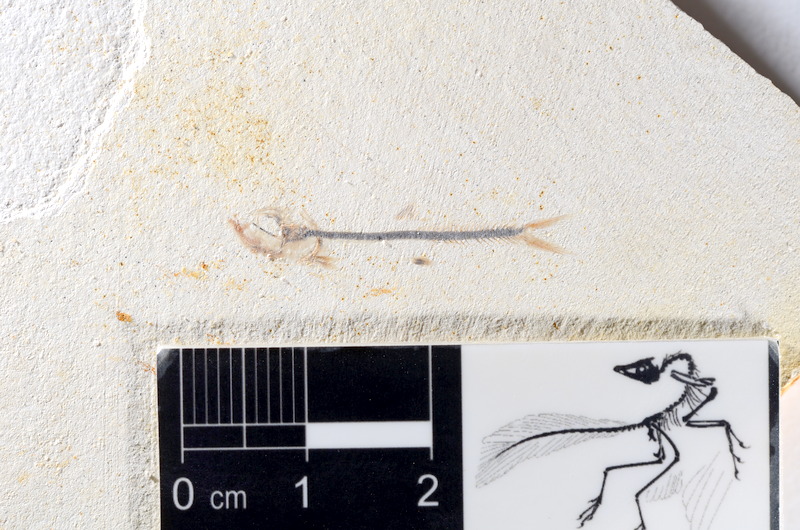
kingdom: Animalia
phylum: Chordata
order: Salmoniformes
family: Orthogonikleithridae
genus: Orthogonikleithrus
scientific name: Orthogonikleithrus hoelli
